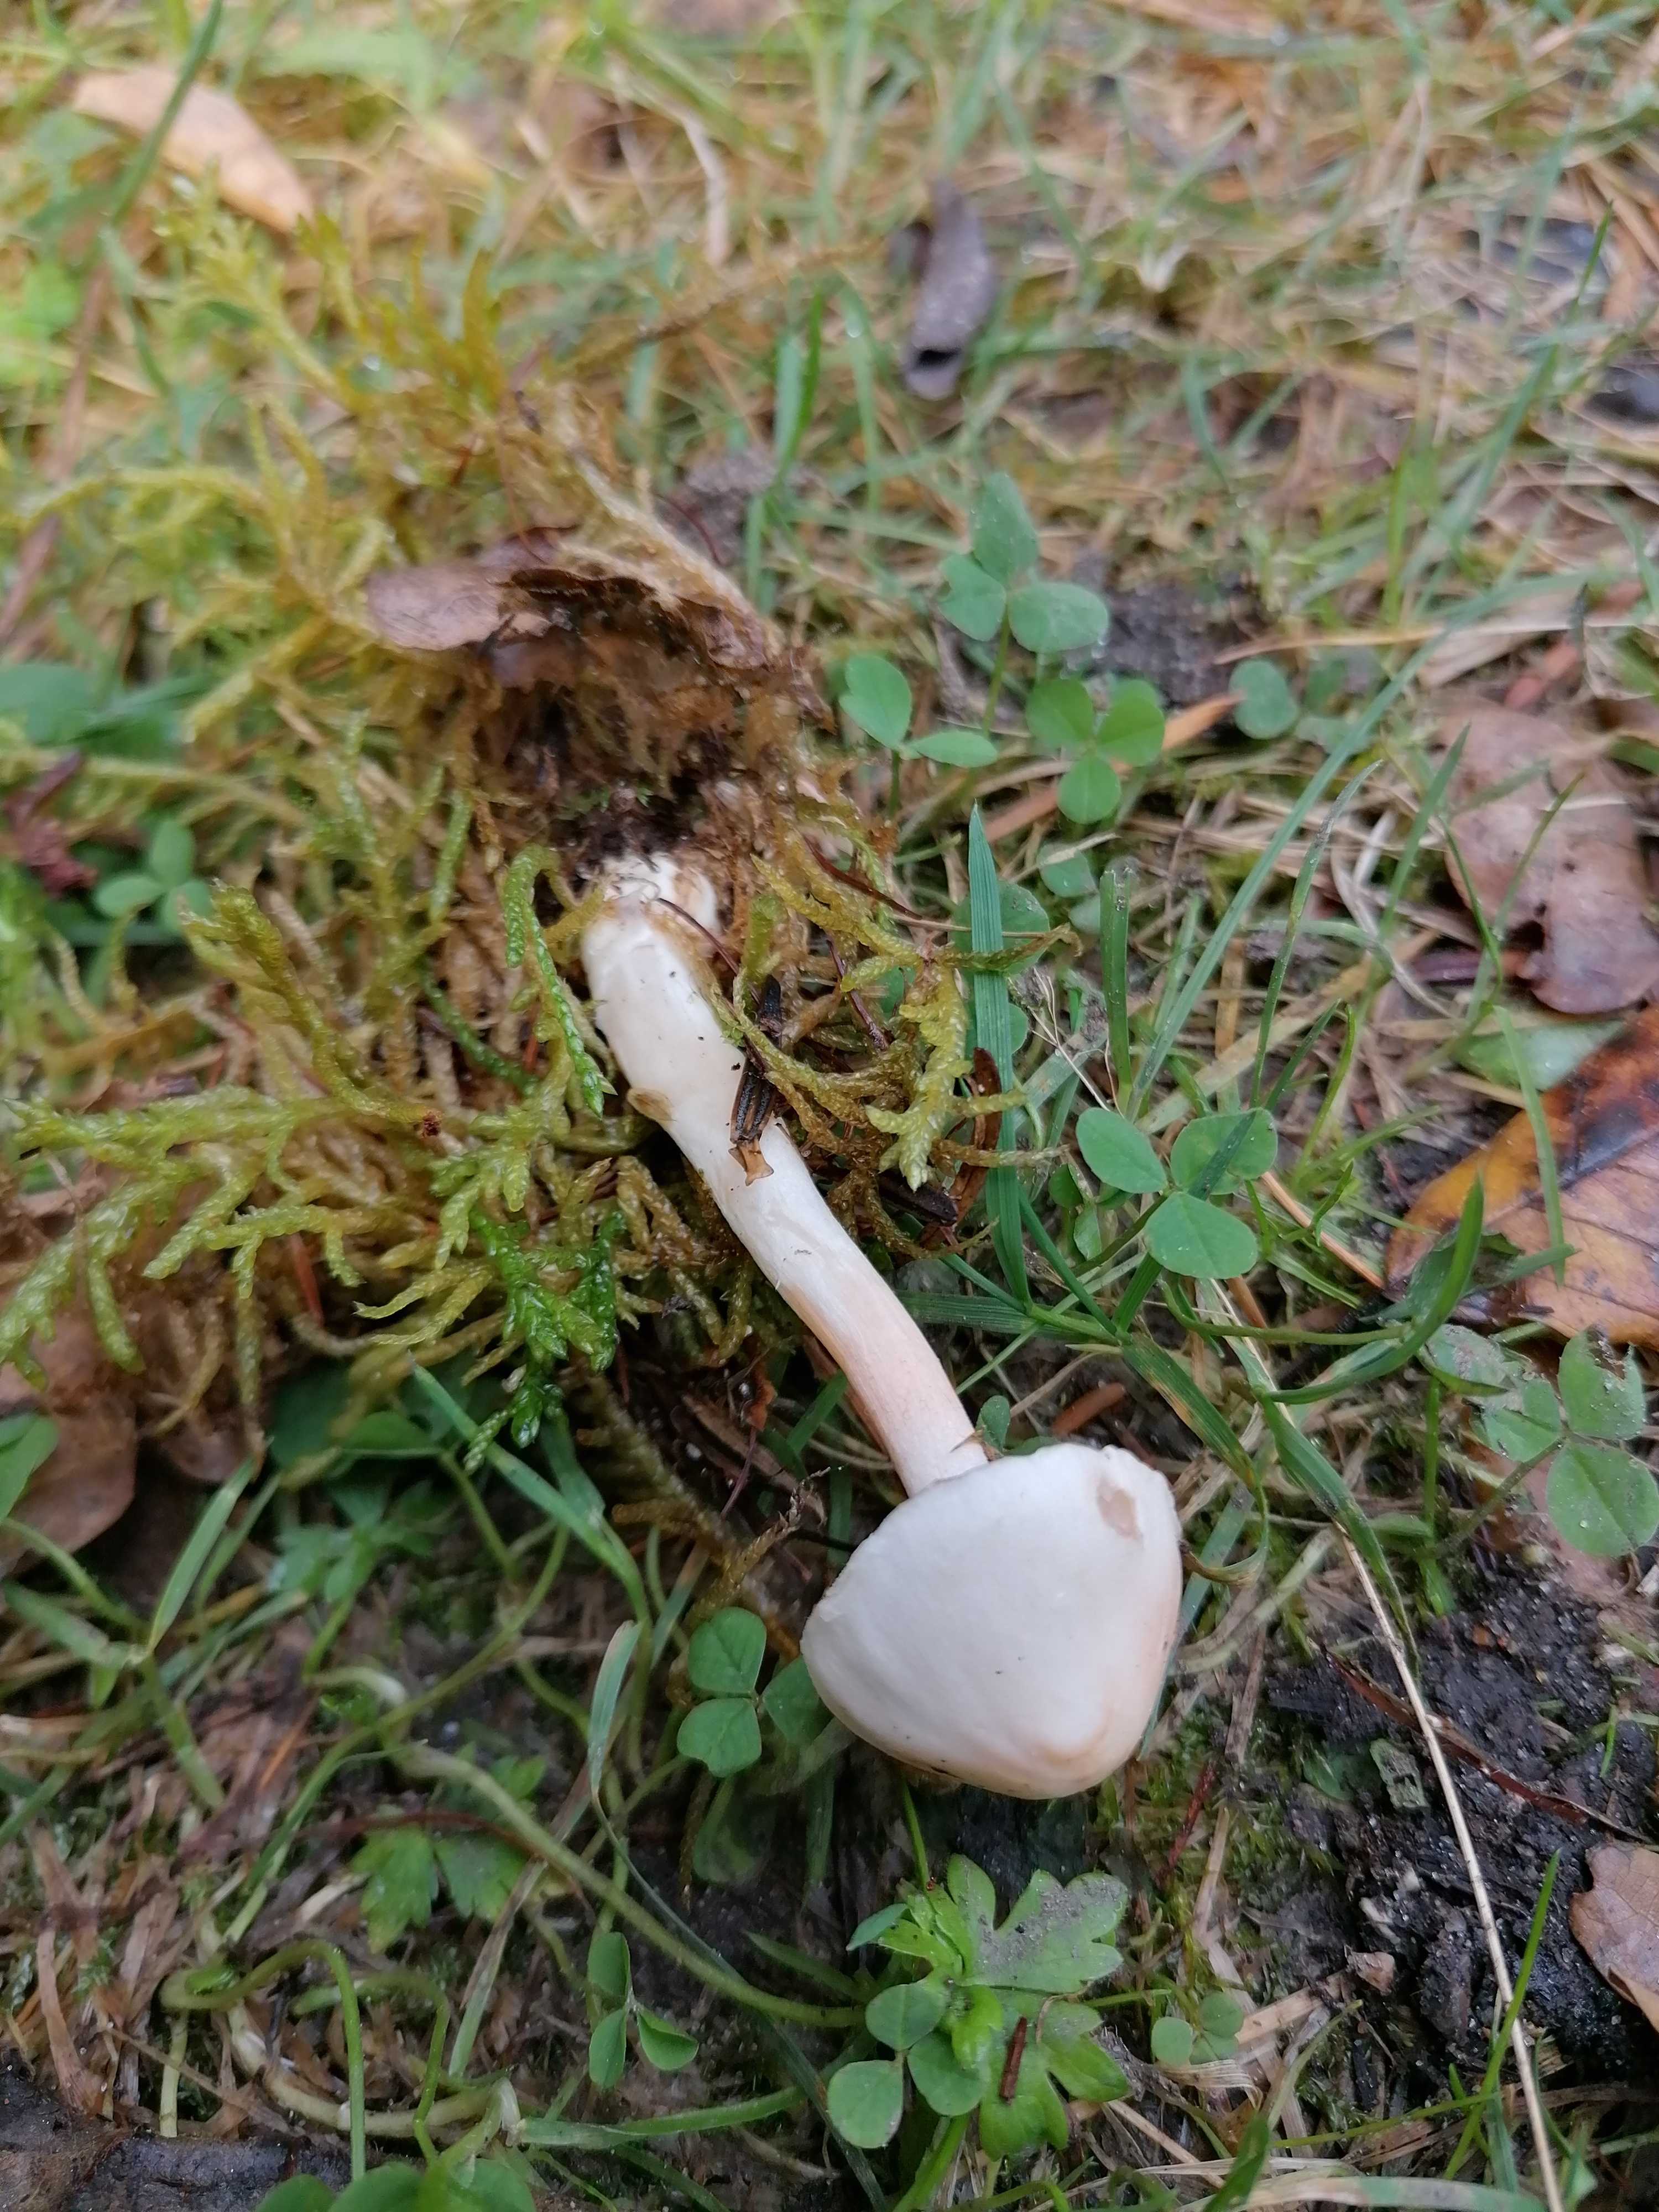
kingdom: Fungi
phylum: Basidiomycota
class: Agaricomycetes
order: Agaricales
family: Inocybaceae
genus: Inocybe
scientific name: Inocybe
